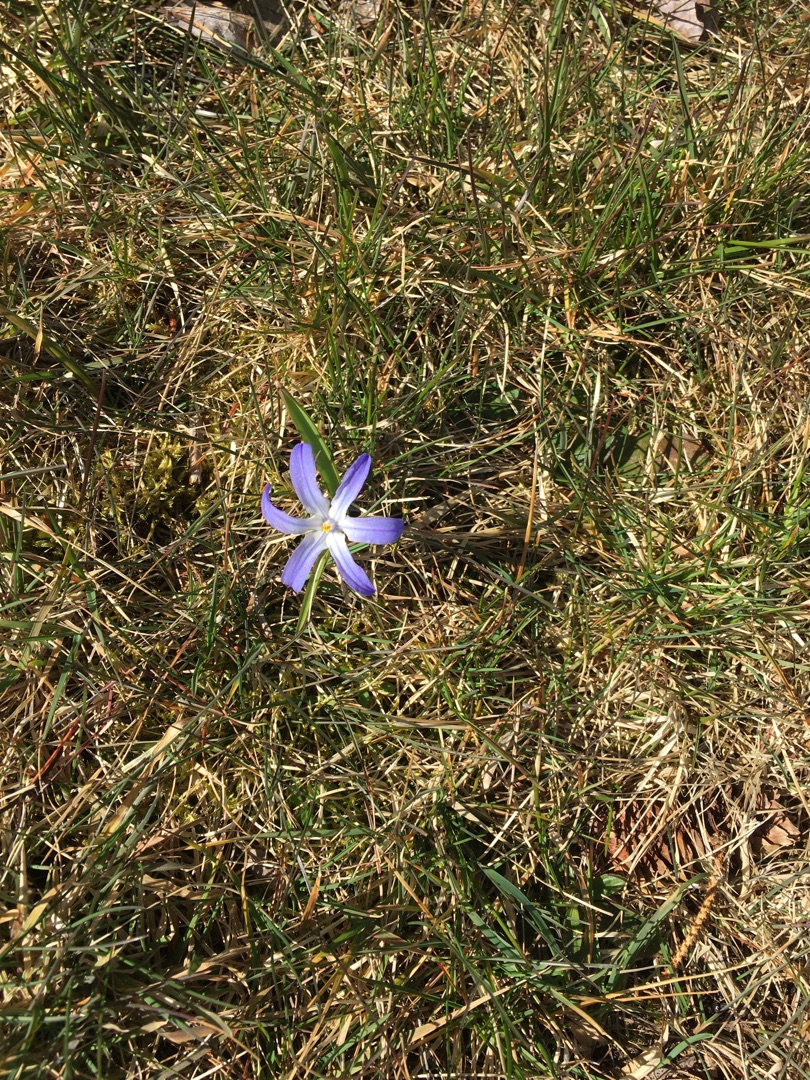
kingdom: Plantae
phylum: Tracheophyta
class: Liliopsida
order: Asparagales
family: Asparagaceae
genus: Scilla
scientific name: Scilla luciliae
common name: Stor snepryd
